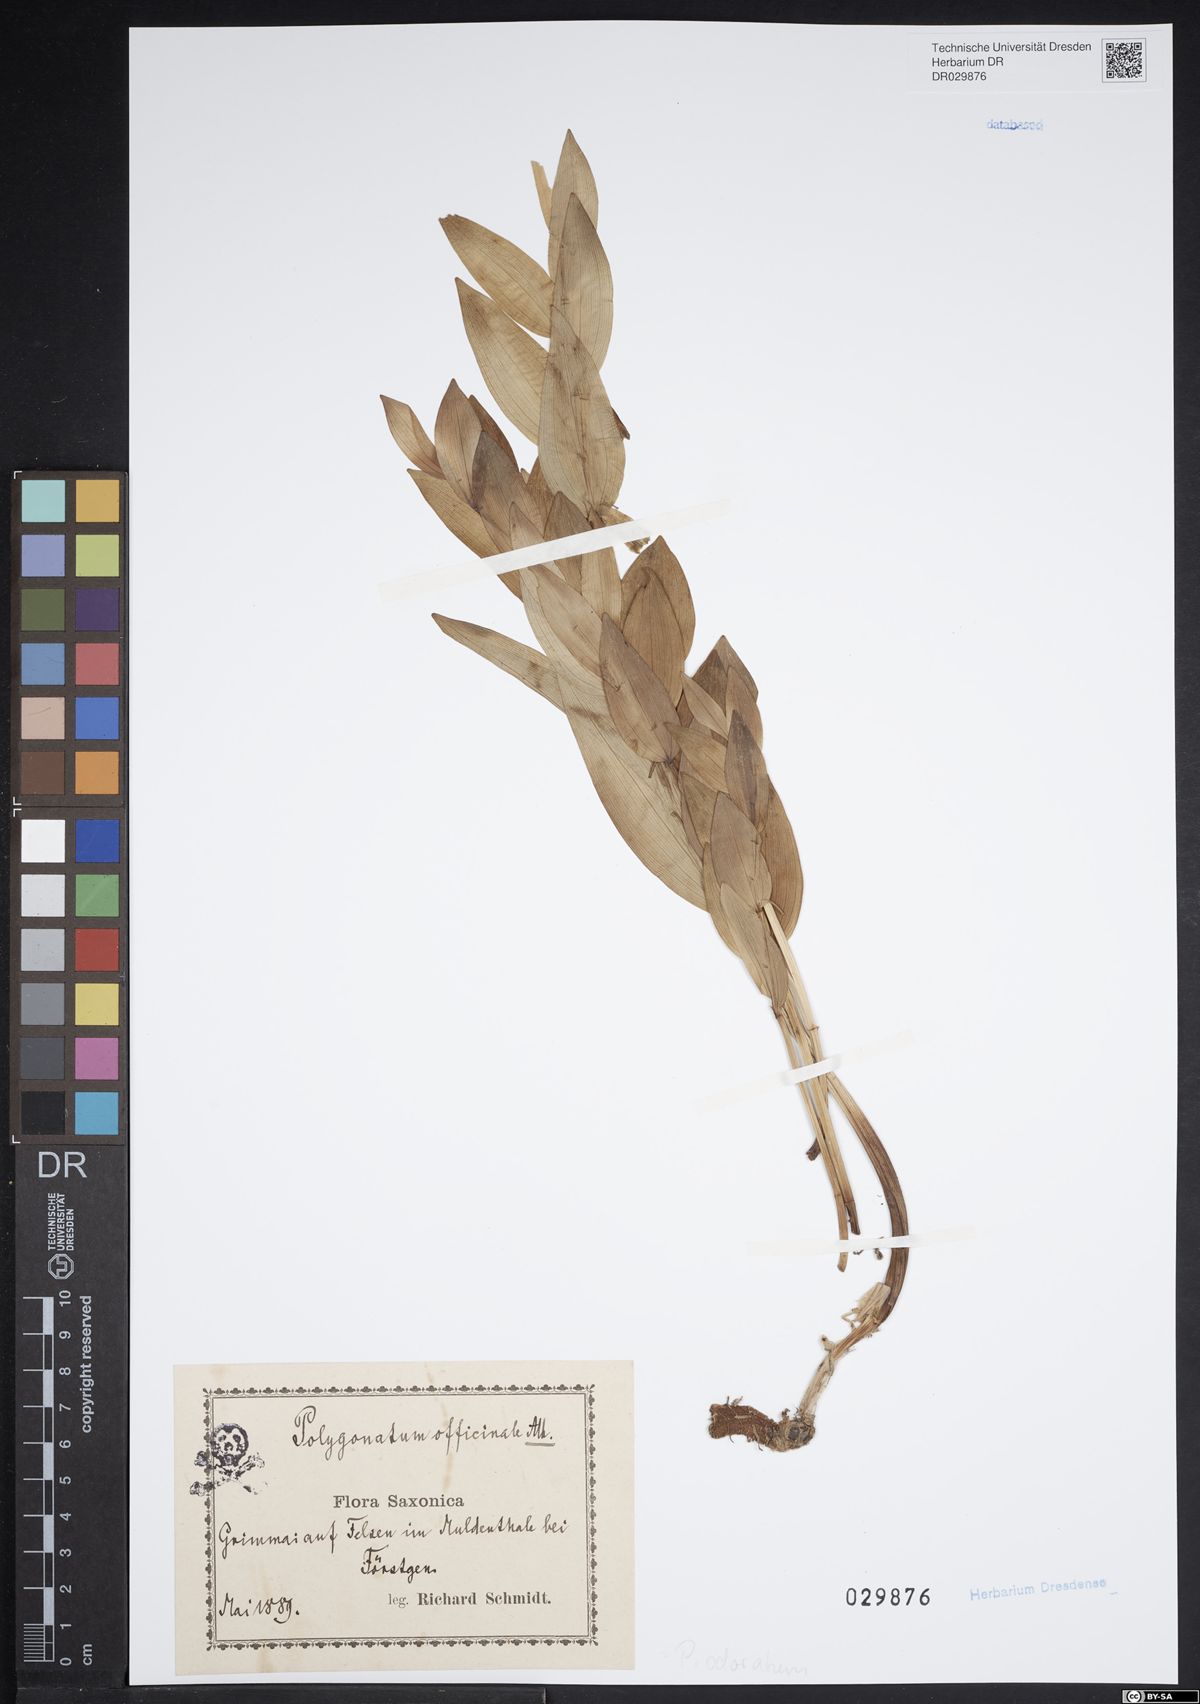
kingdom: Plantae
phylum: Tracheophyta
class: Liliopsida
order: Asparagales
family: Asparagaceae
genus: Polygonatum
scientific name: Polygonatum odoratum
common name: Angular solomon's-seal
